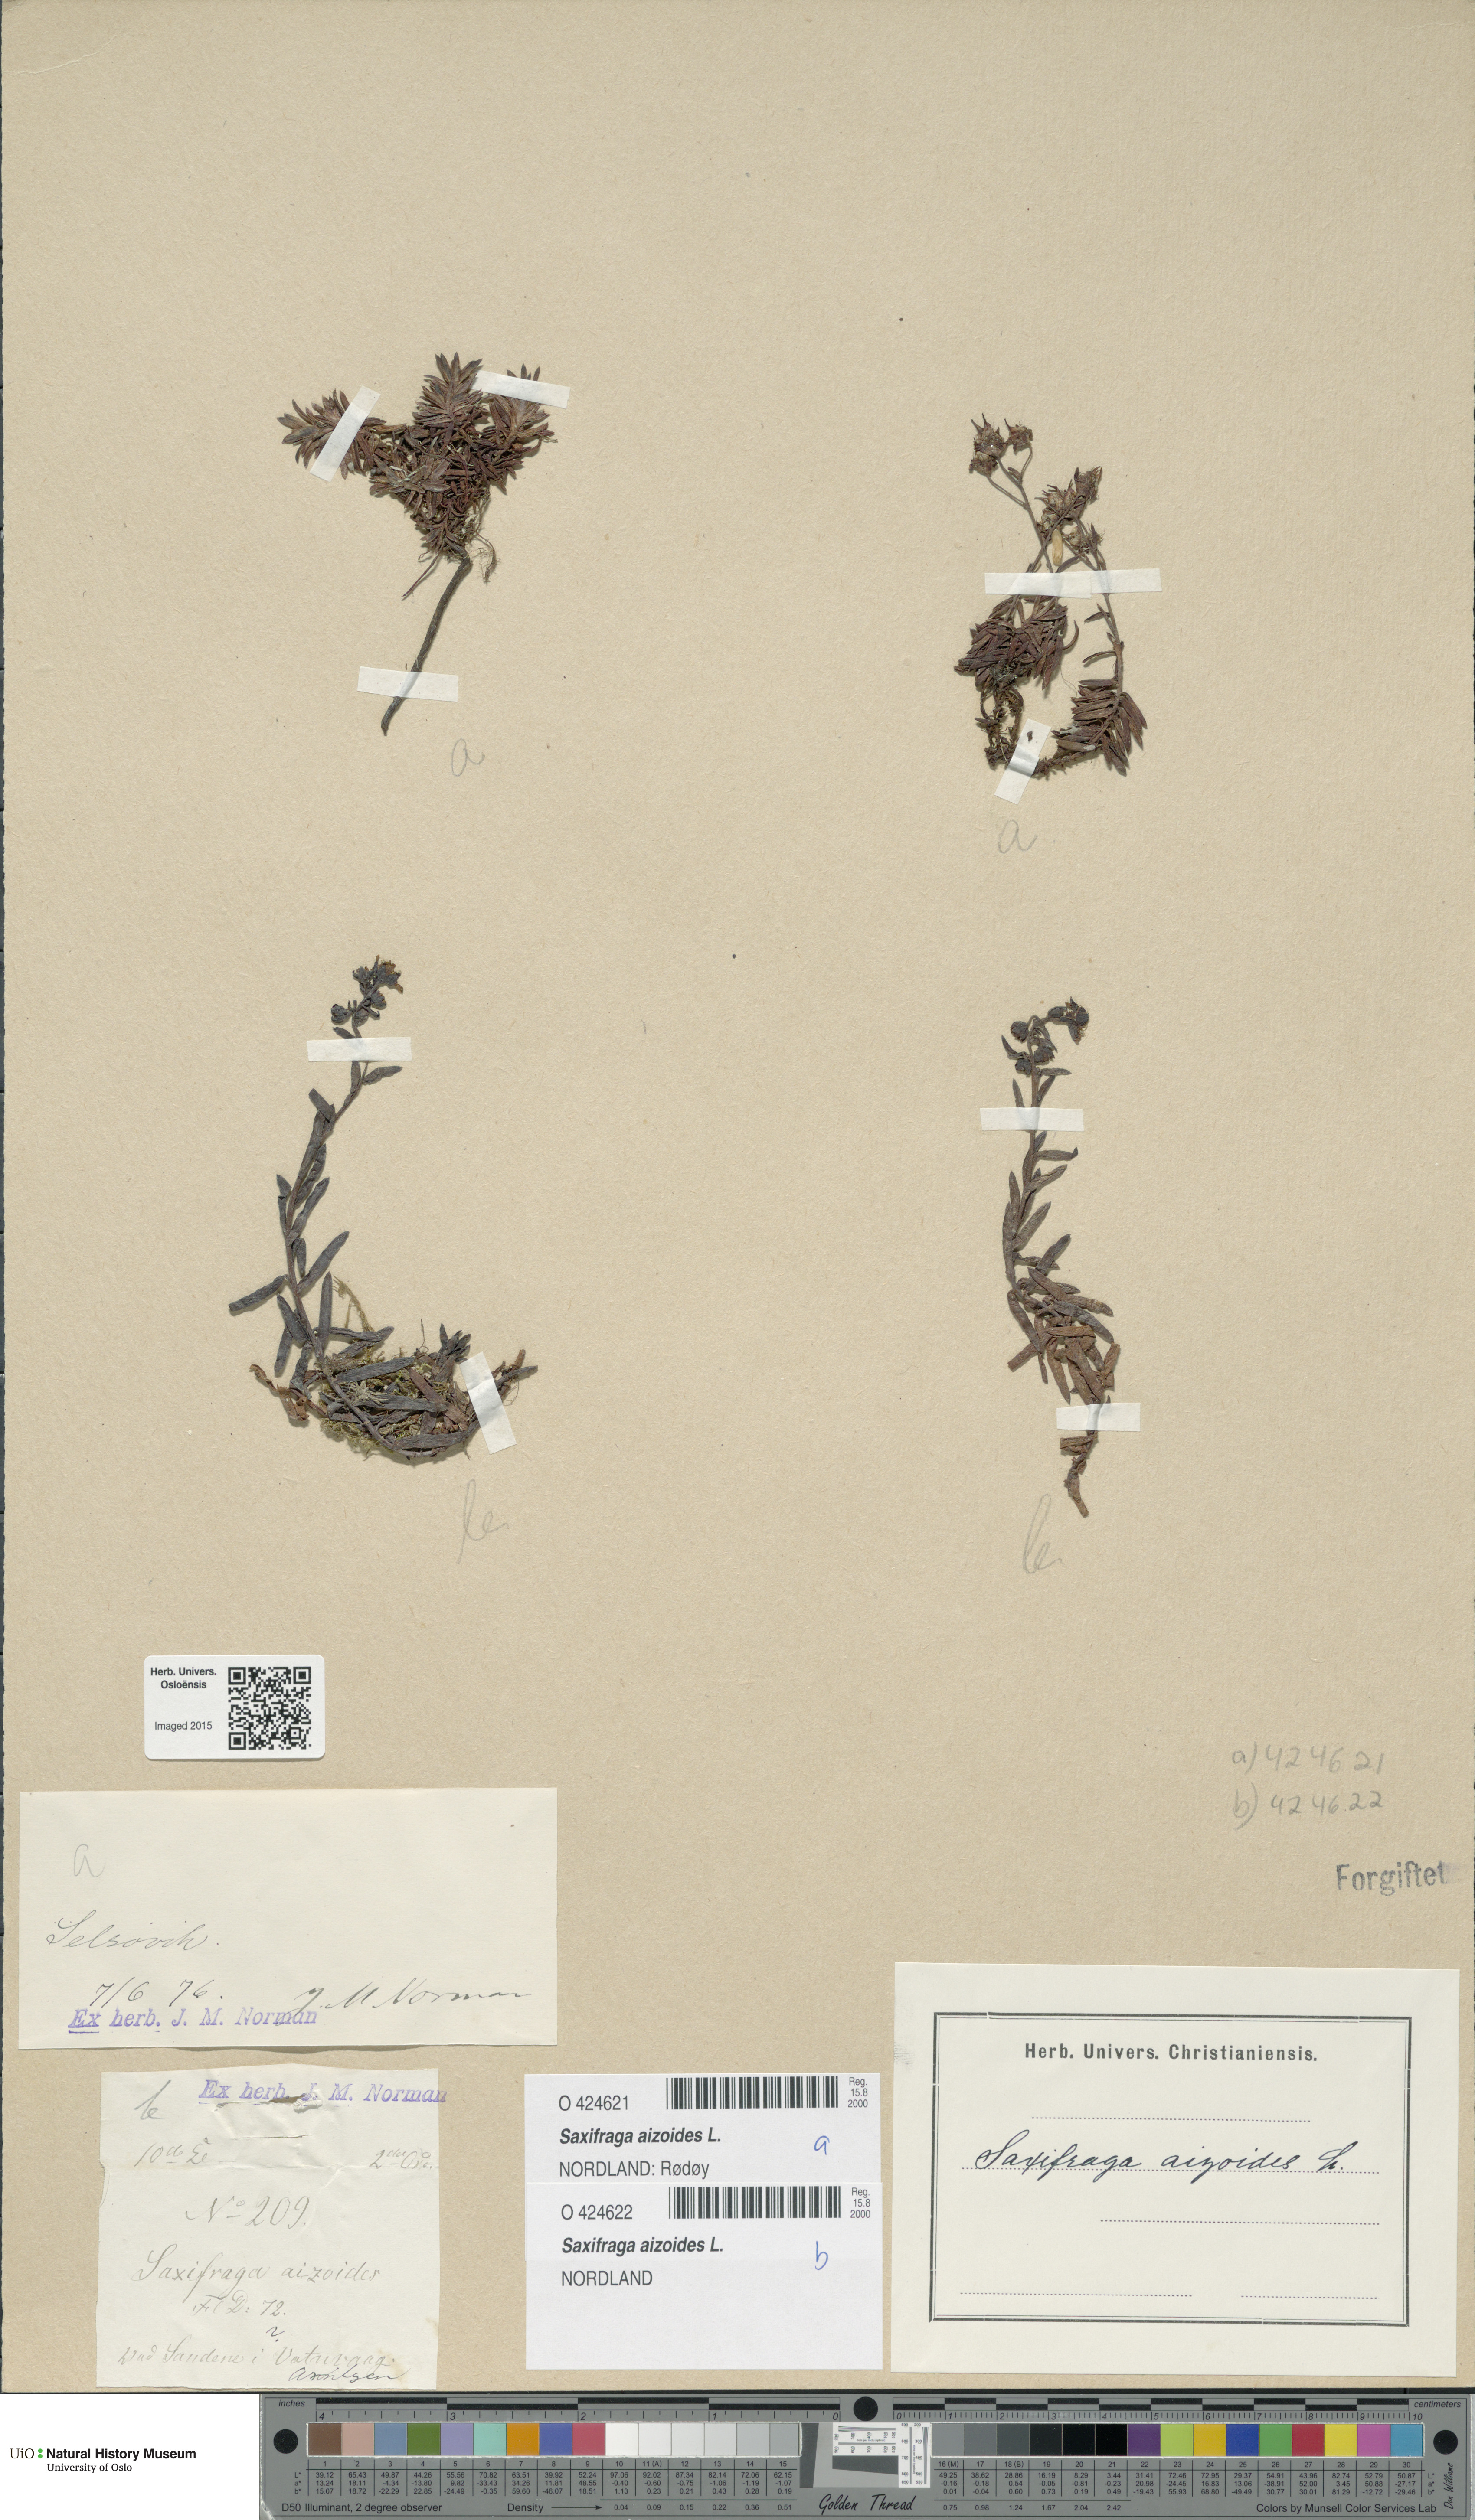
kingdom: Plantae
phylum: Tracheophyta
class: Magnoliopsida
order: Saxifragales
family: Saxifragaceae
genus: Saxifraga
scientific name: Saxifraga aizoides
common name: Yellow mountain saxifrage
